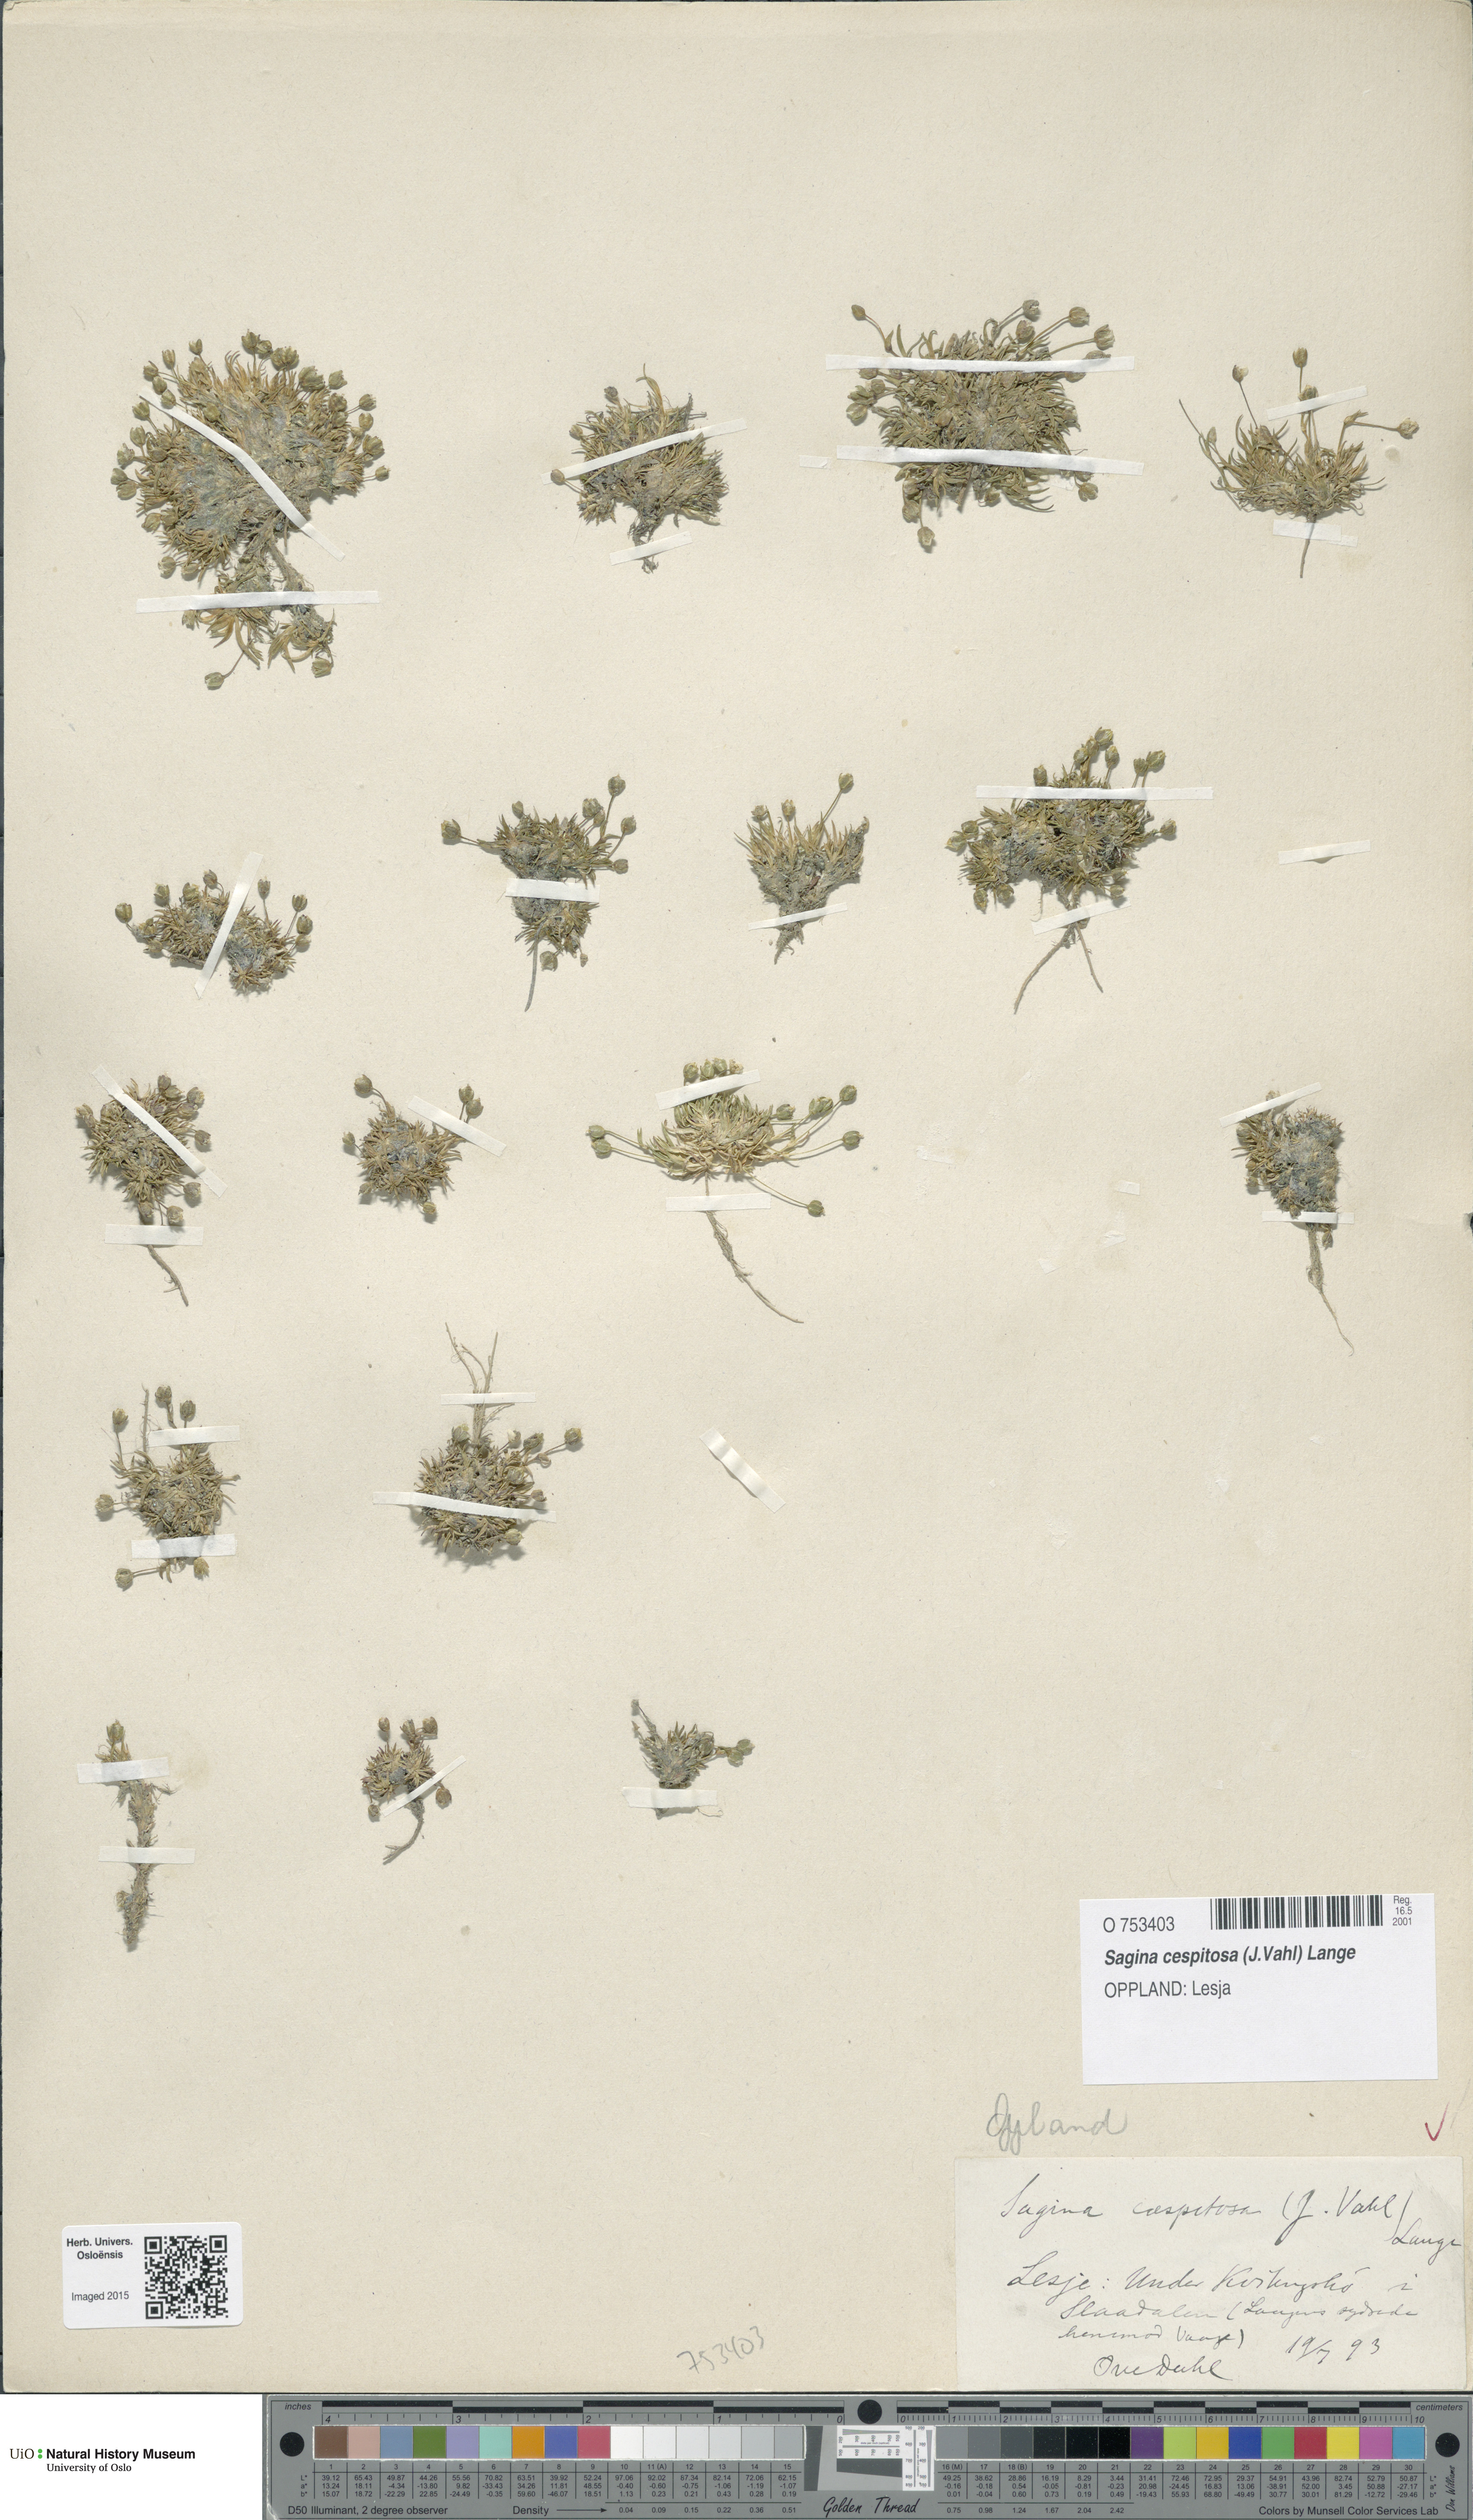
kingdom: Plantae
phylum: Tracheophyta
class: Magnoliopsida
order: Caryophyllales
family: Caryophyllaceae
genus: Sagina
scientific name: Sagina caespitosa
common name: Tufted pearlwort
